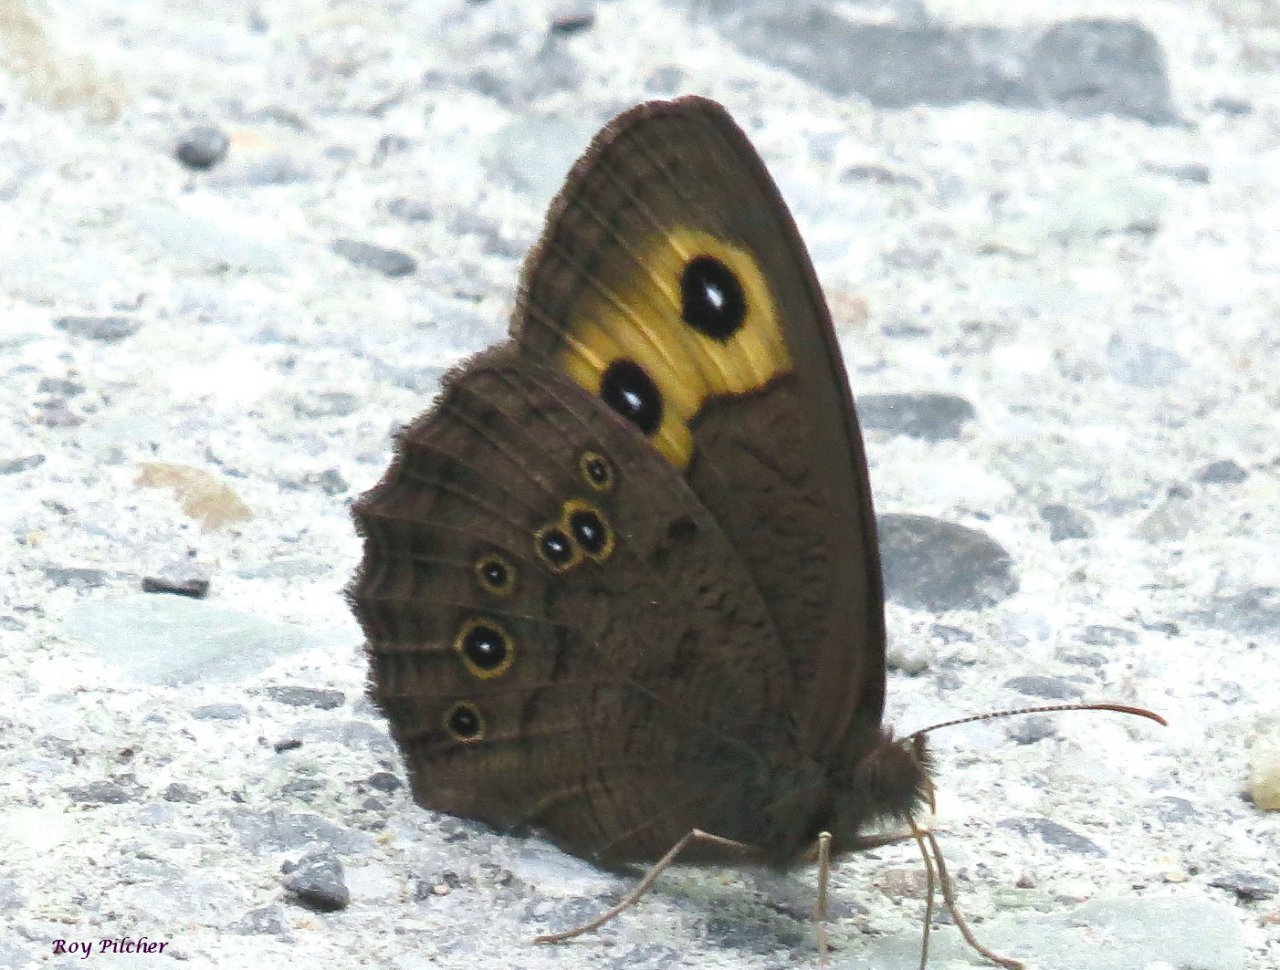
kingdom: Animalia
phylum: Arthropoda
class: Insecta
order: Lepidoptera
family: Nymphalidae
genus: Cercyonis
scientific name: Cercyonis pegala
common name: Common Wood-Nymph
